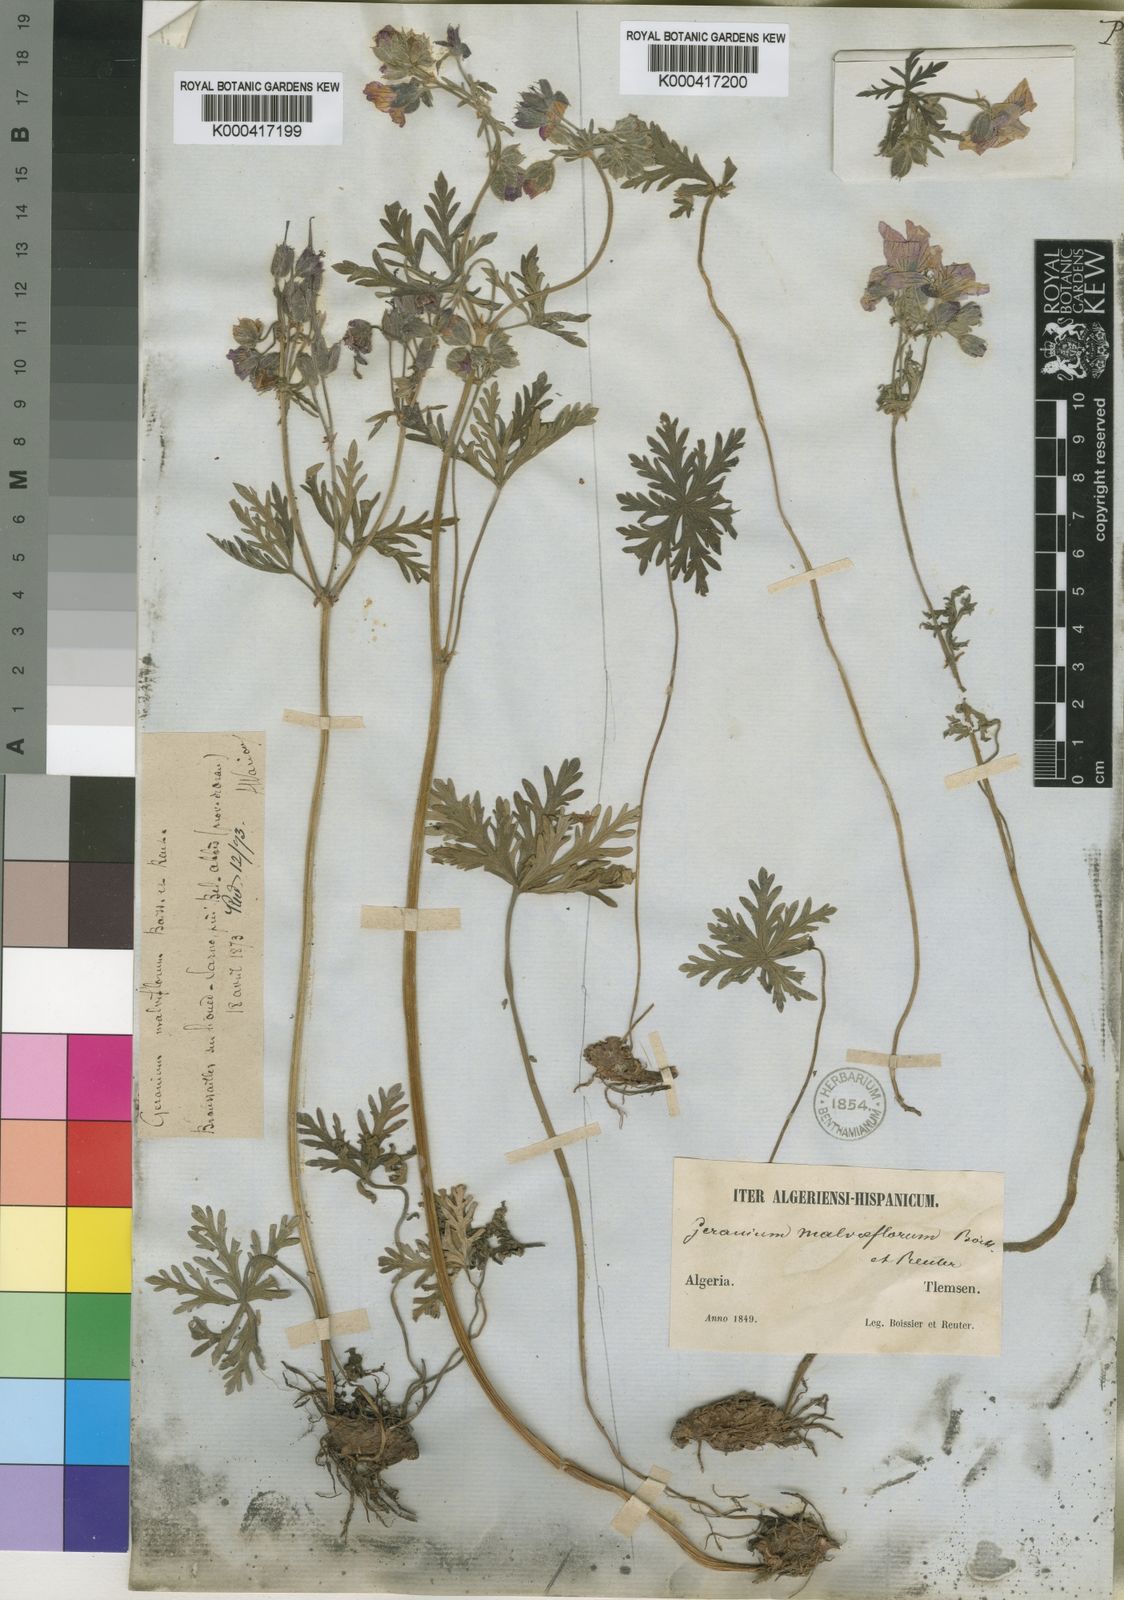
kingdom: Plantae
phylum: Tracheophyta
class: Magnoliopsida
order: Geraniales
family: Geraniaceae
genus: Geranium
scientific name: Geranium malviflorum
